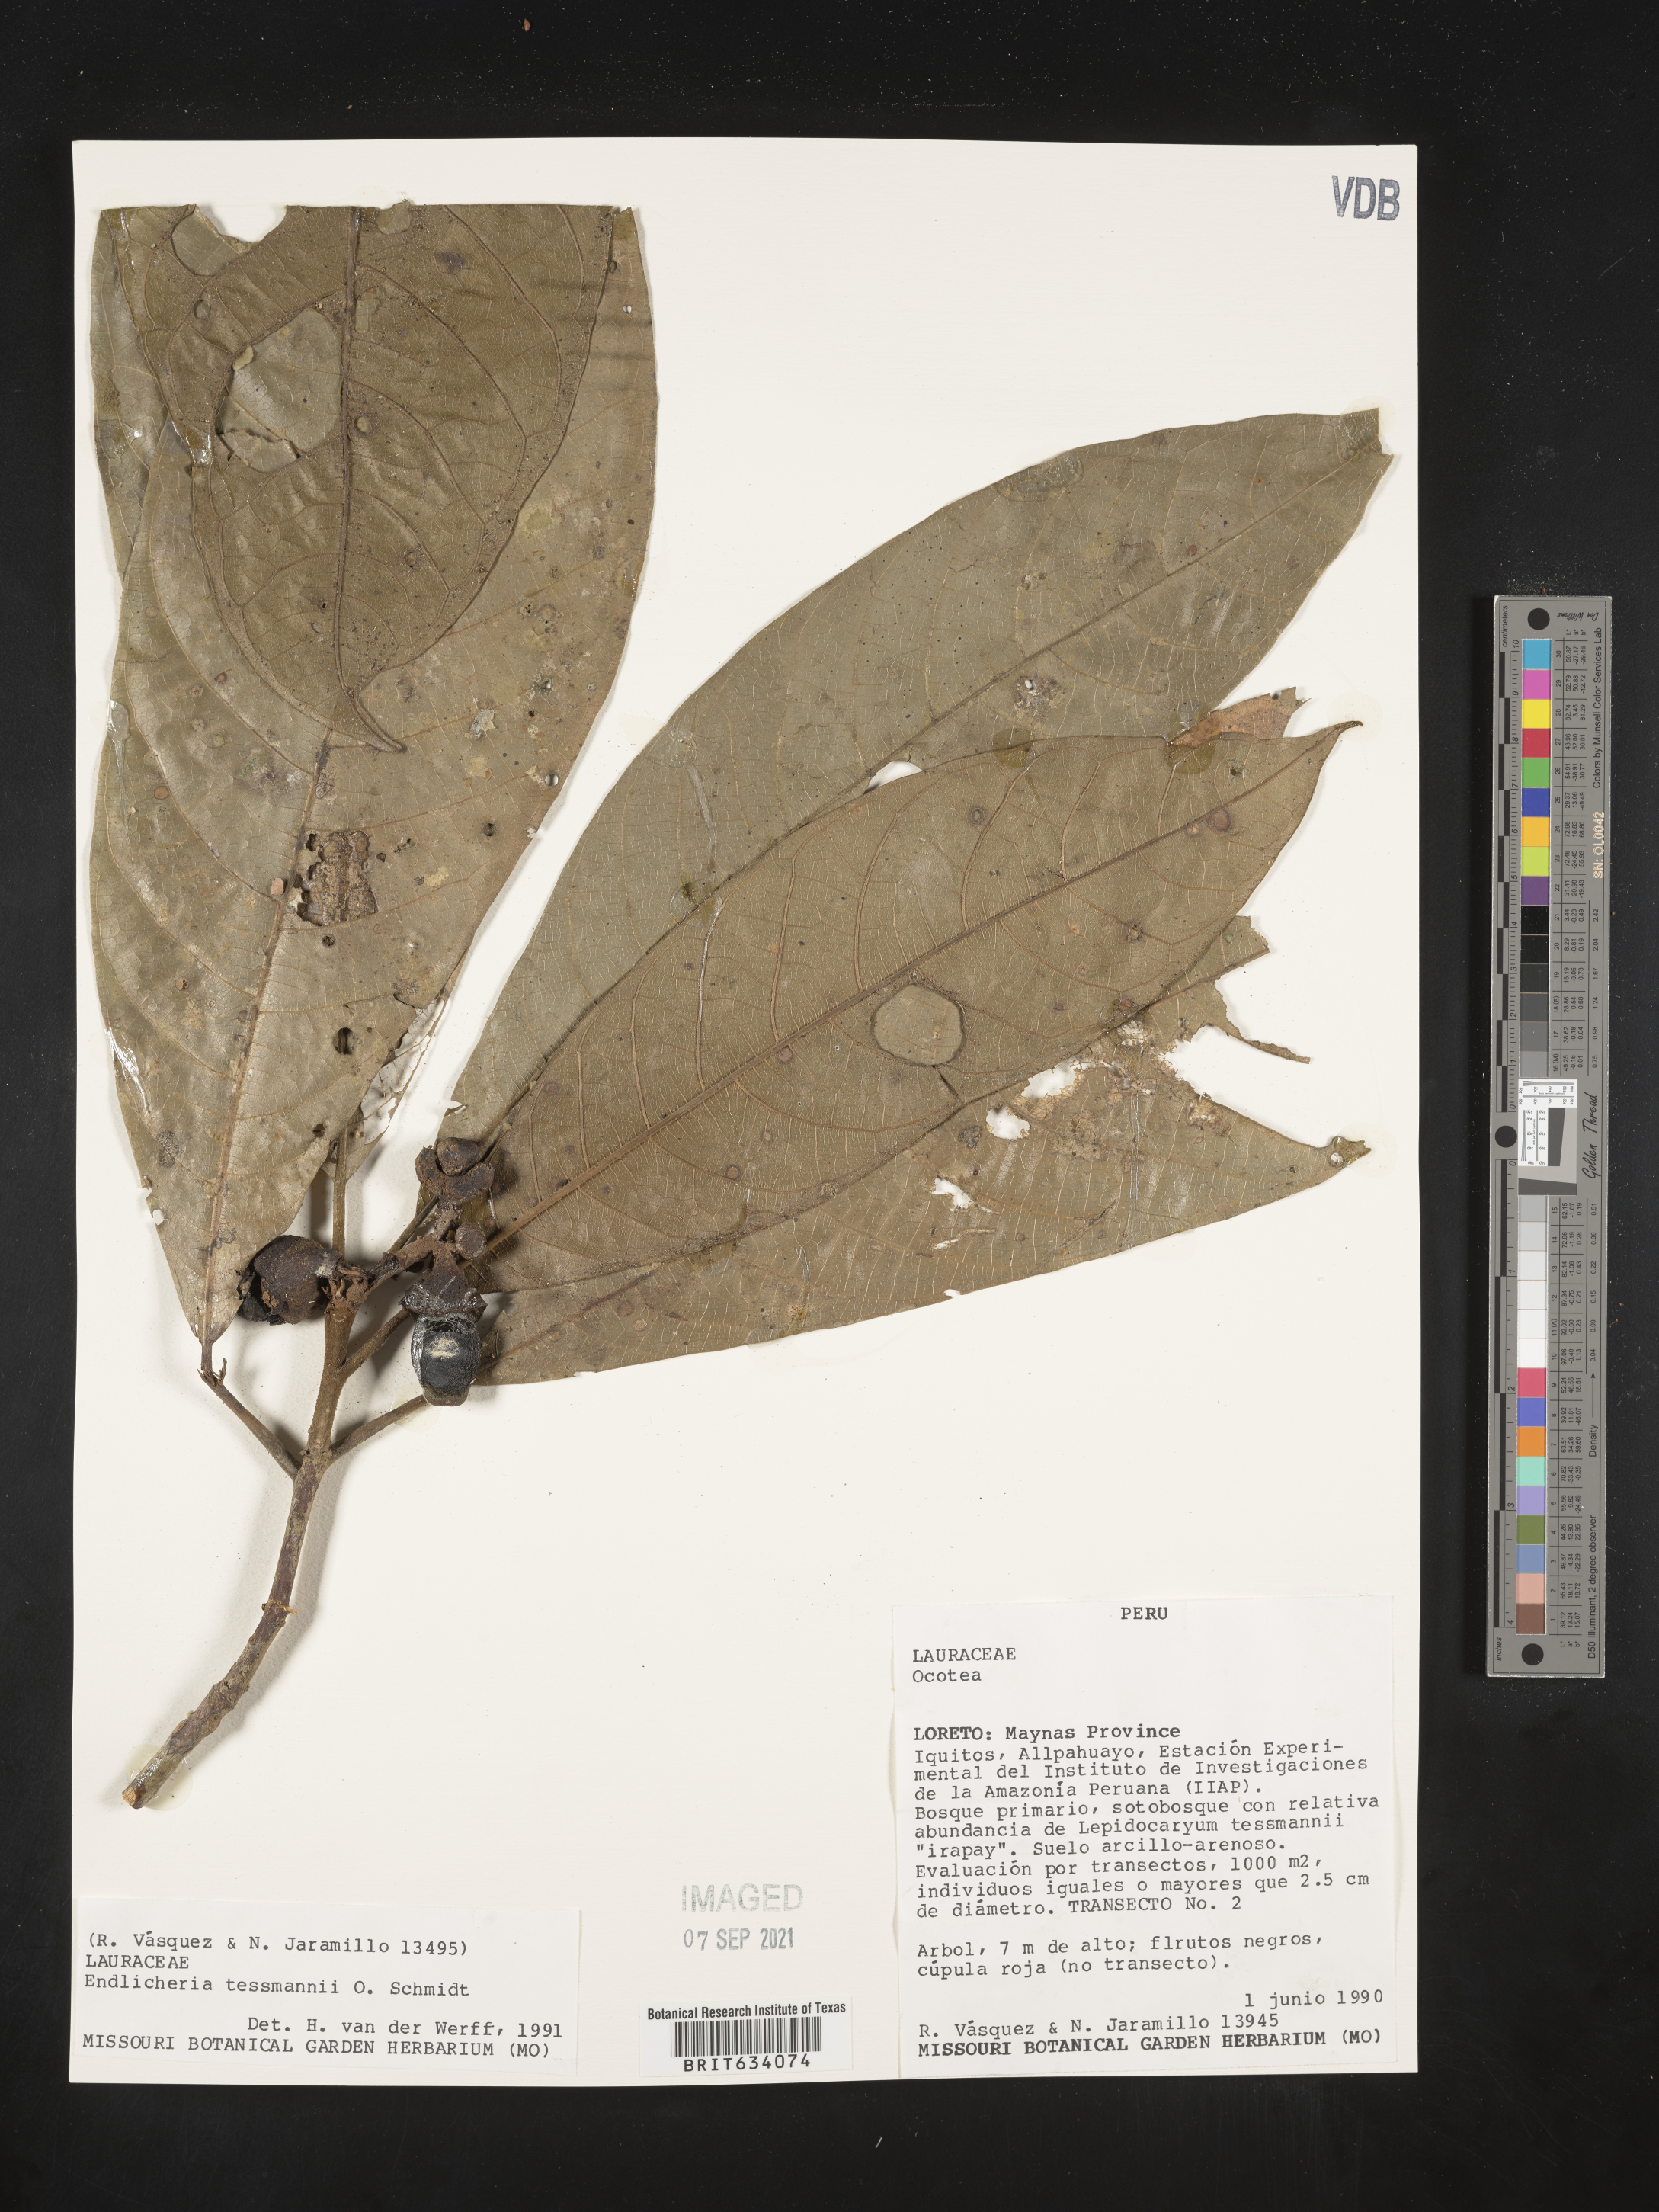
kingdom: Plantae
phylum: Tracheophyta
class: Magnoliopsida
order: Laurales
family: Lauraceae
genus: Endlicheria
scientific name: Endlicheria
